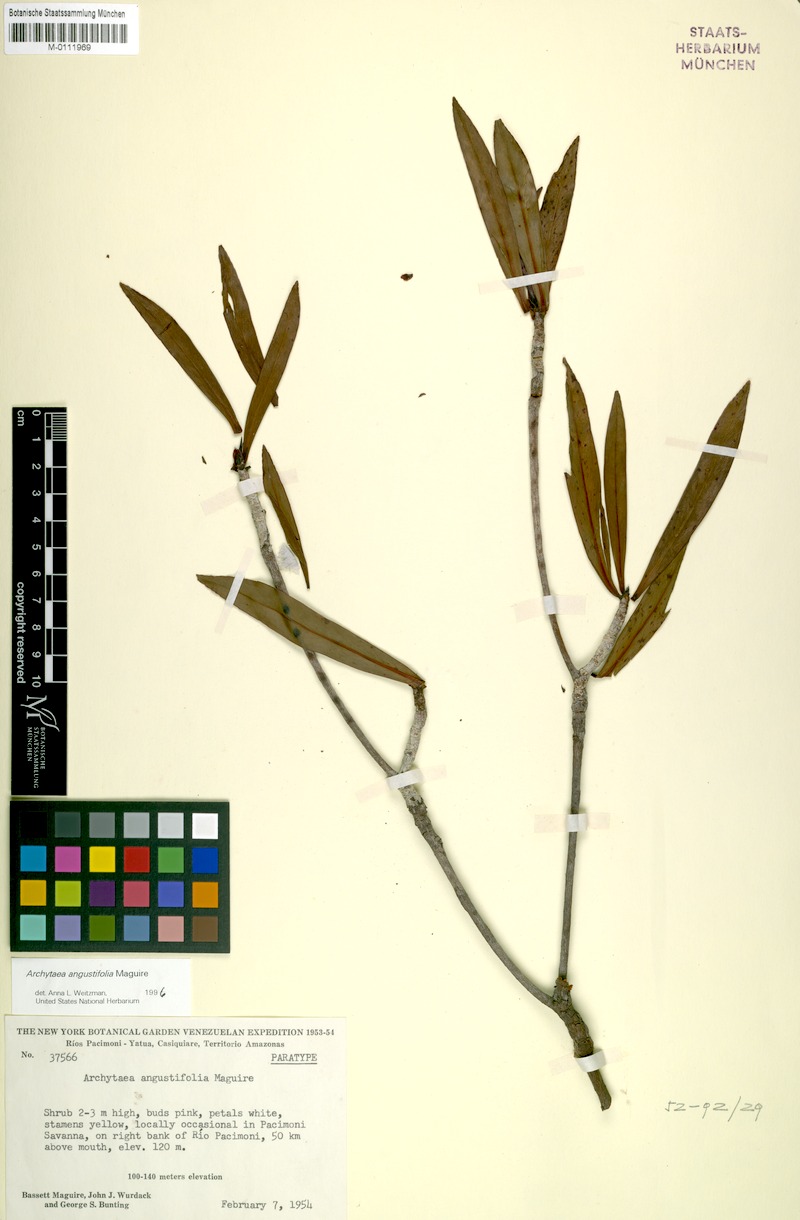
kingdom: Plantae
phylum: Tracheophyta
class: Magnoliopsida
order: Malpighiales
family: Bonnetiaceae
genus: Archytaea
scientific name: Archytaea angustifolia
